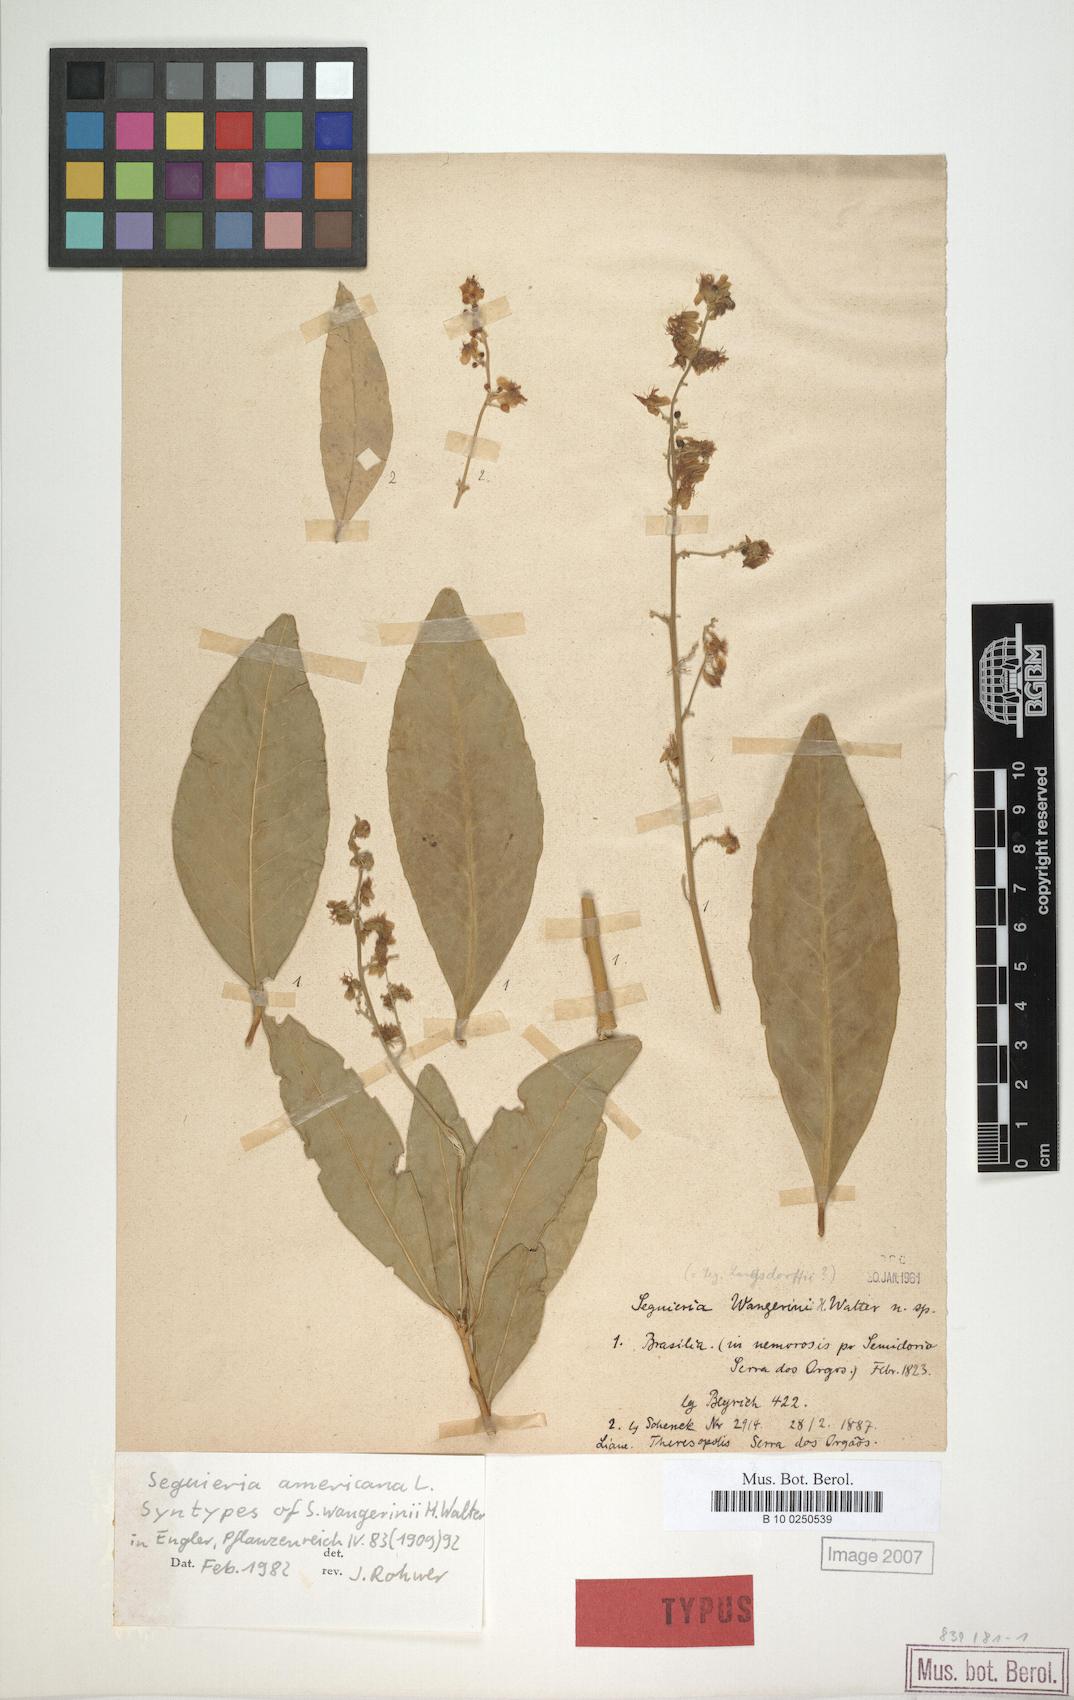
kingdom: Plantae
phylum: Tracheophyta
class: Magnoliopsida
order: Caryophyllales
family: Phytolaccaceae
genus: Seguieria
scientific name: Seguieria americana
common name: American seguieria
